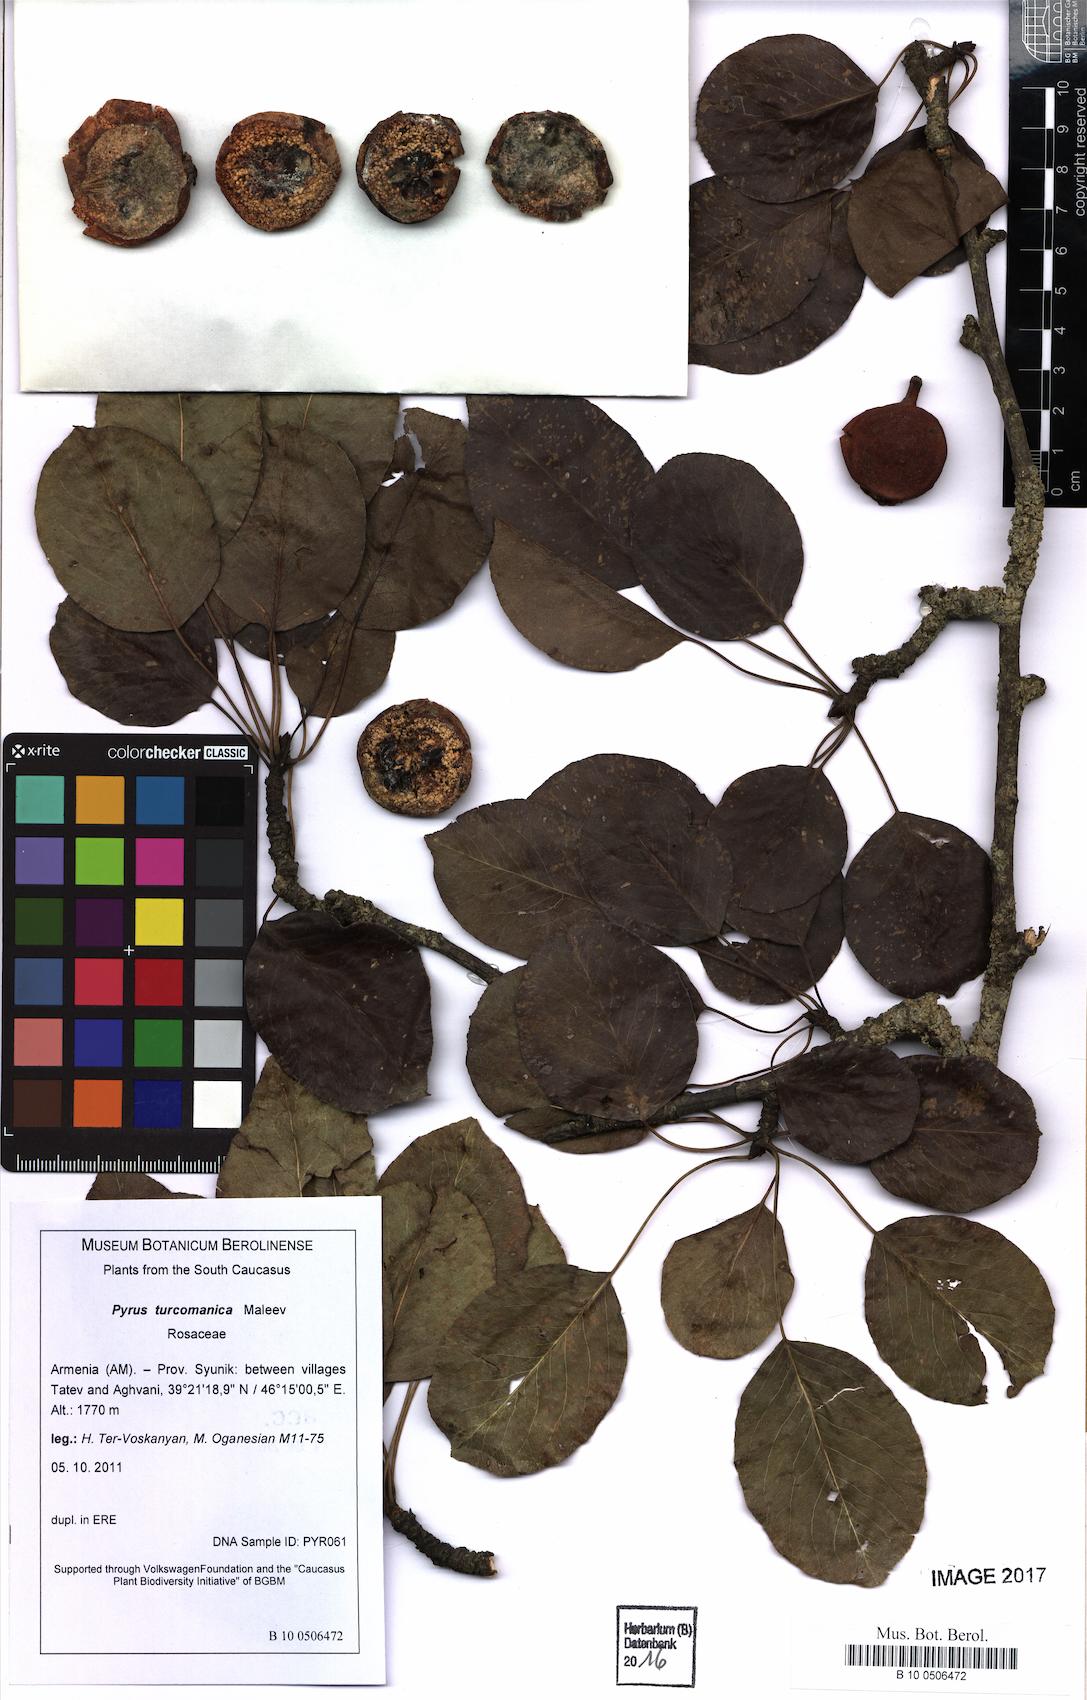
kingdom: Plantae
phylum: Tracheophyta
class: Magnoliopsida
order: Rosales
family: Rosaceae
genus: Pyrus
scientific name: Pyrus turcomanica
